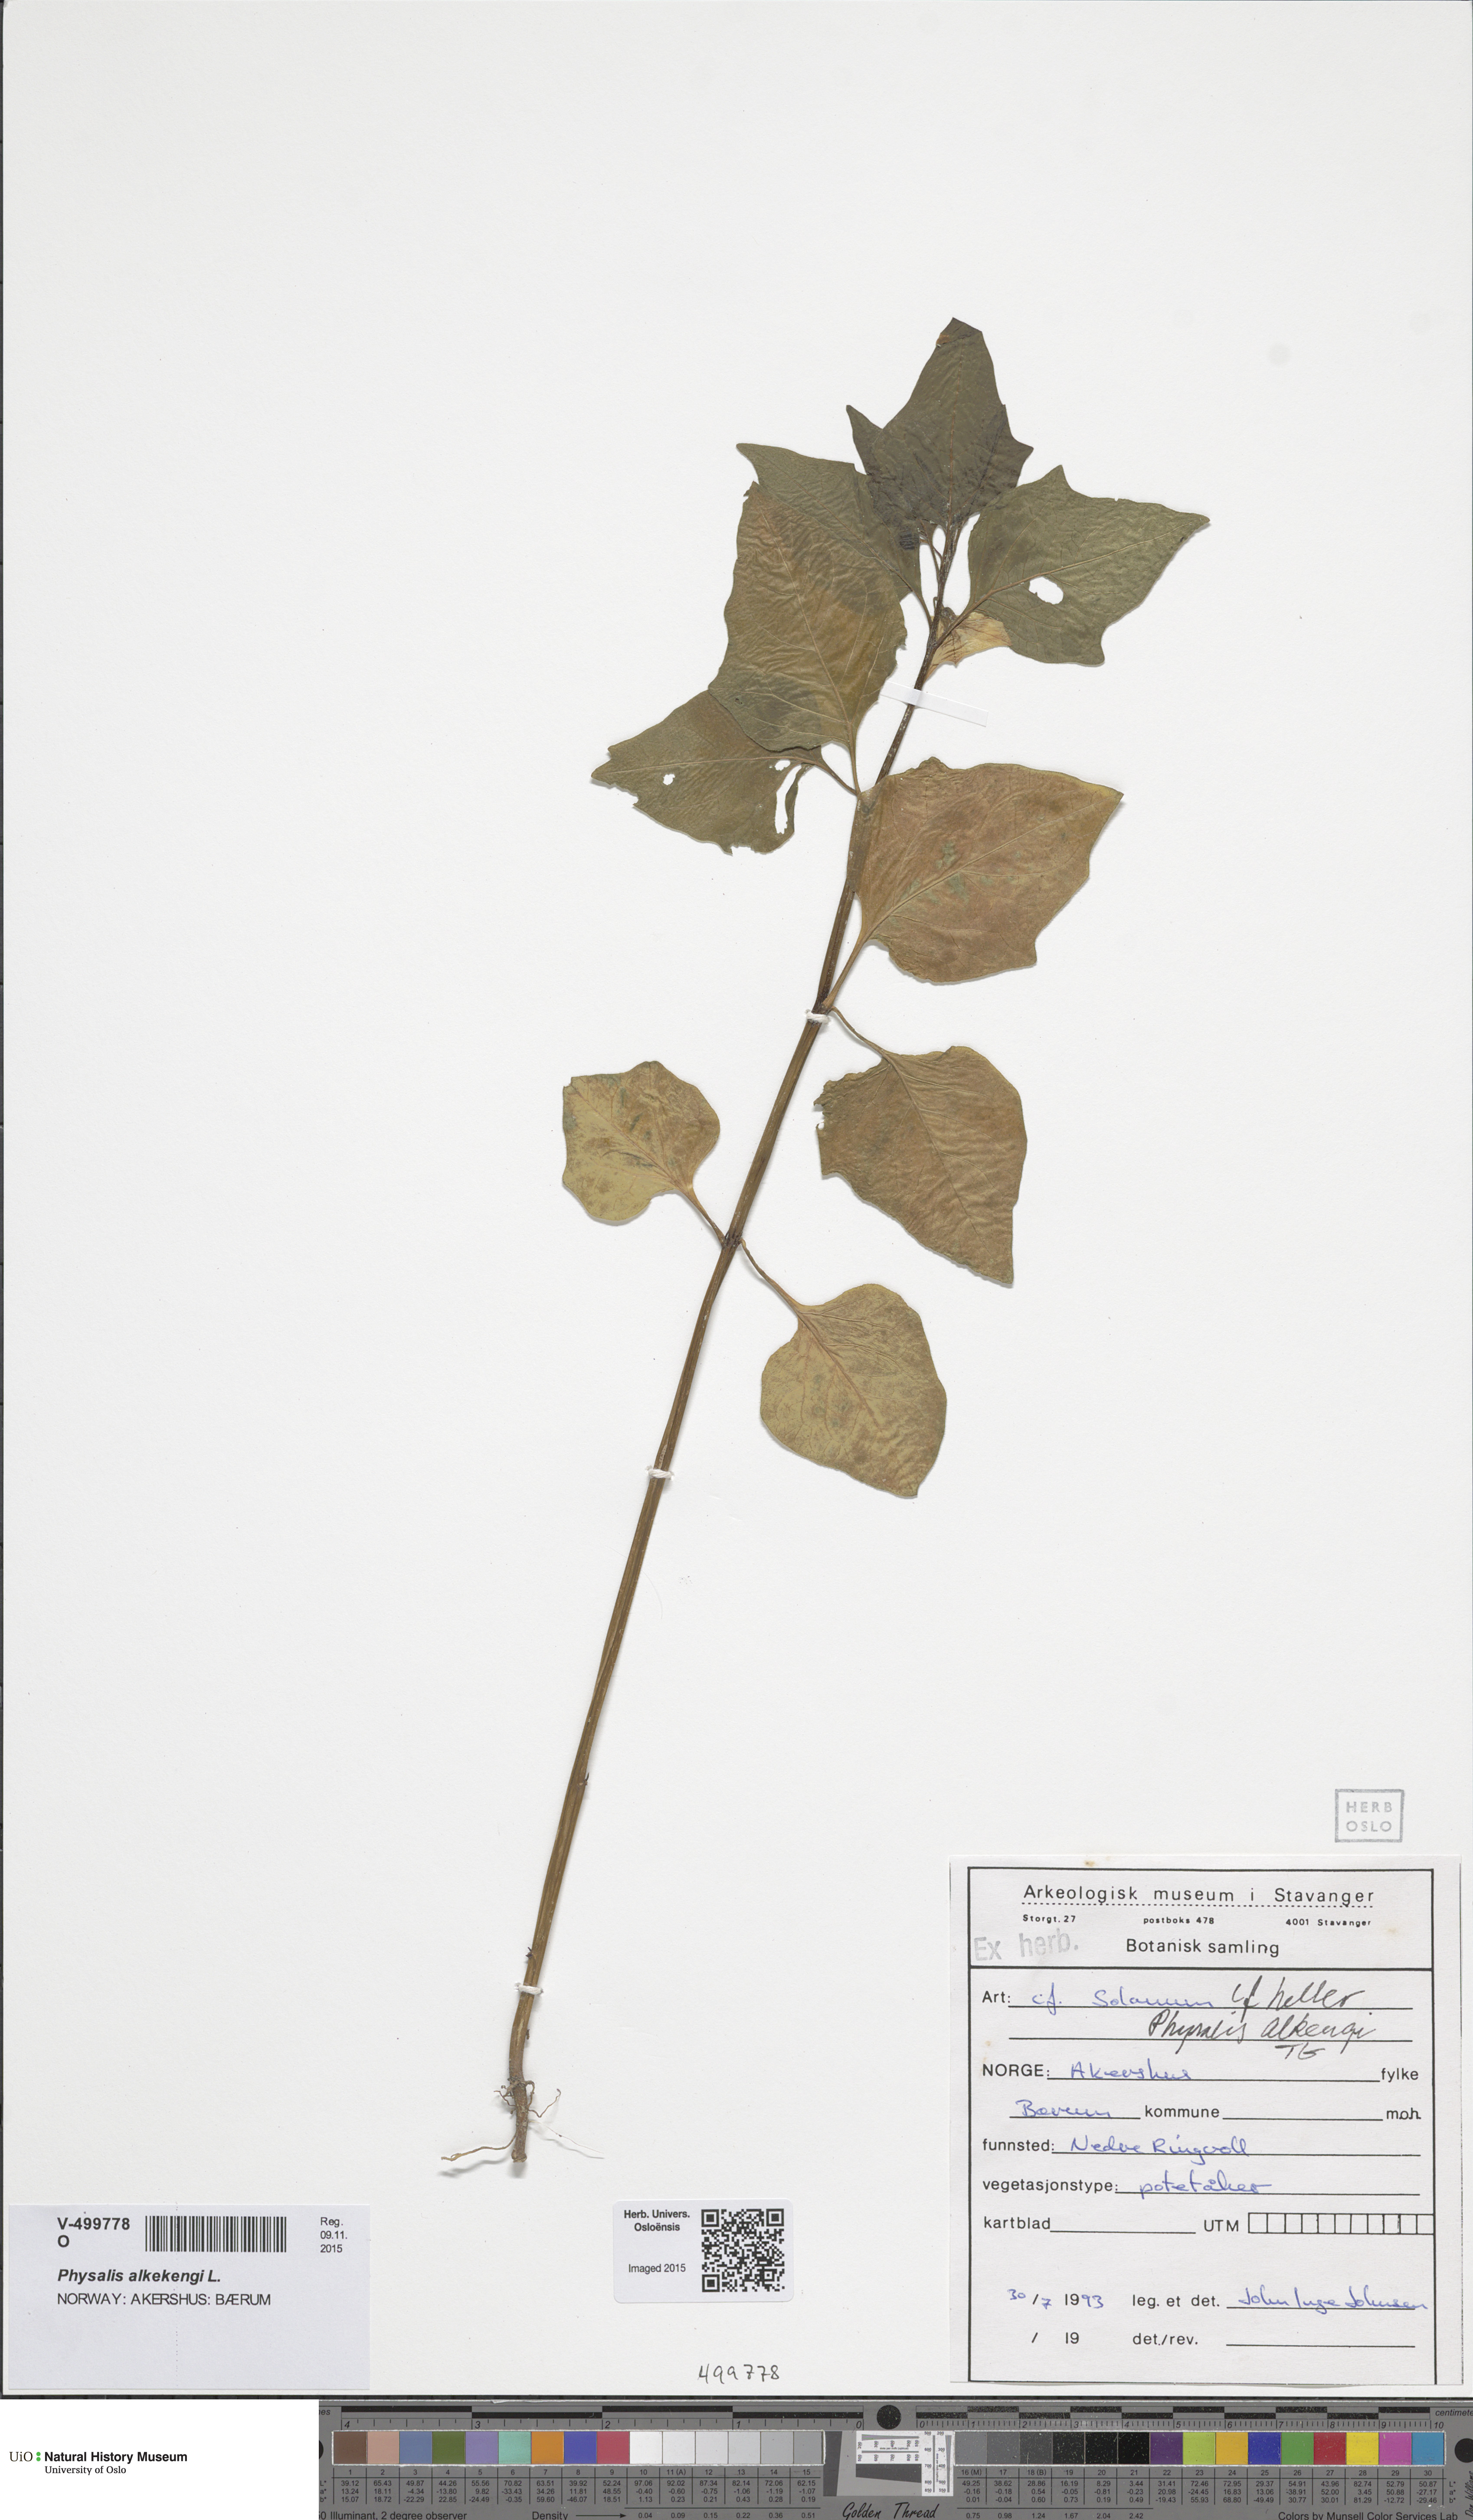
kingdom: Plantae
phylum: Tracheophyta
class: Magnoliopsida
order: Solanales
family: Solanaceae
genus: Alkekengi
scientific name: Alkekengi officinarum
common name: Japanese-lantern
